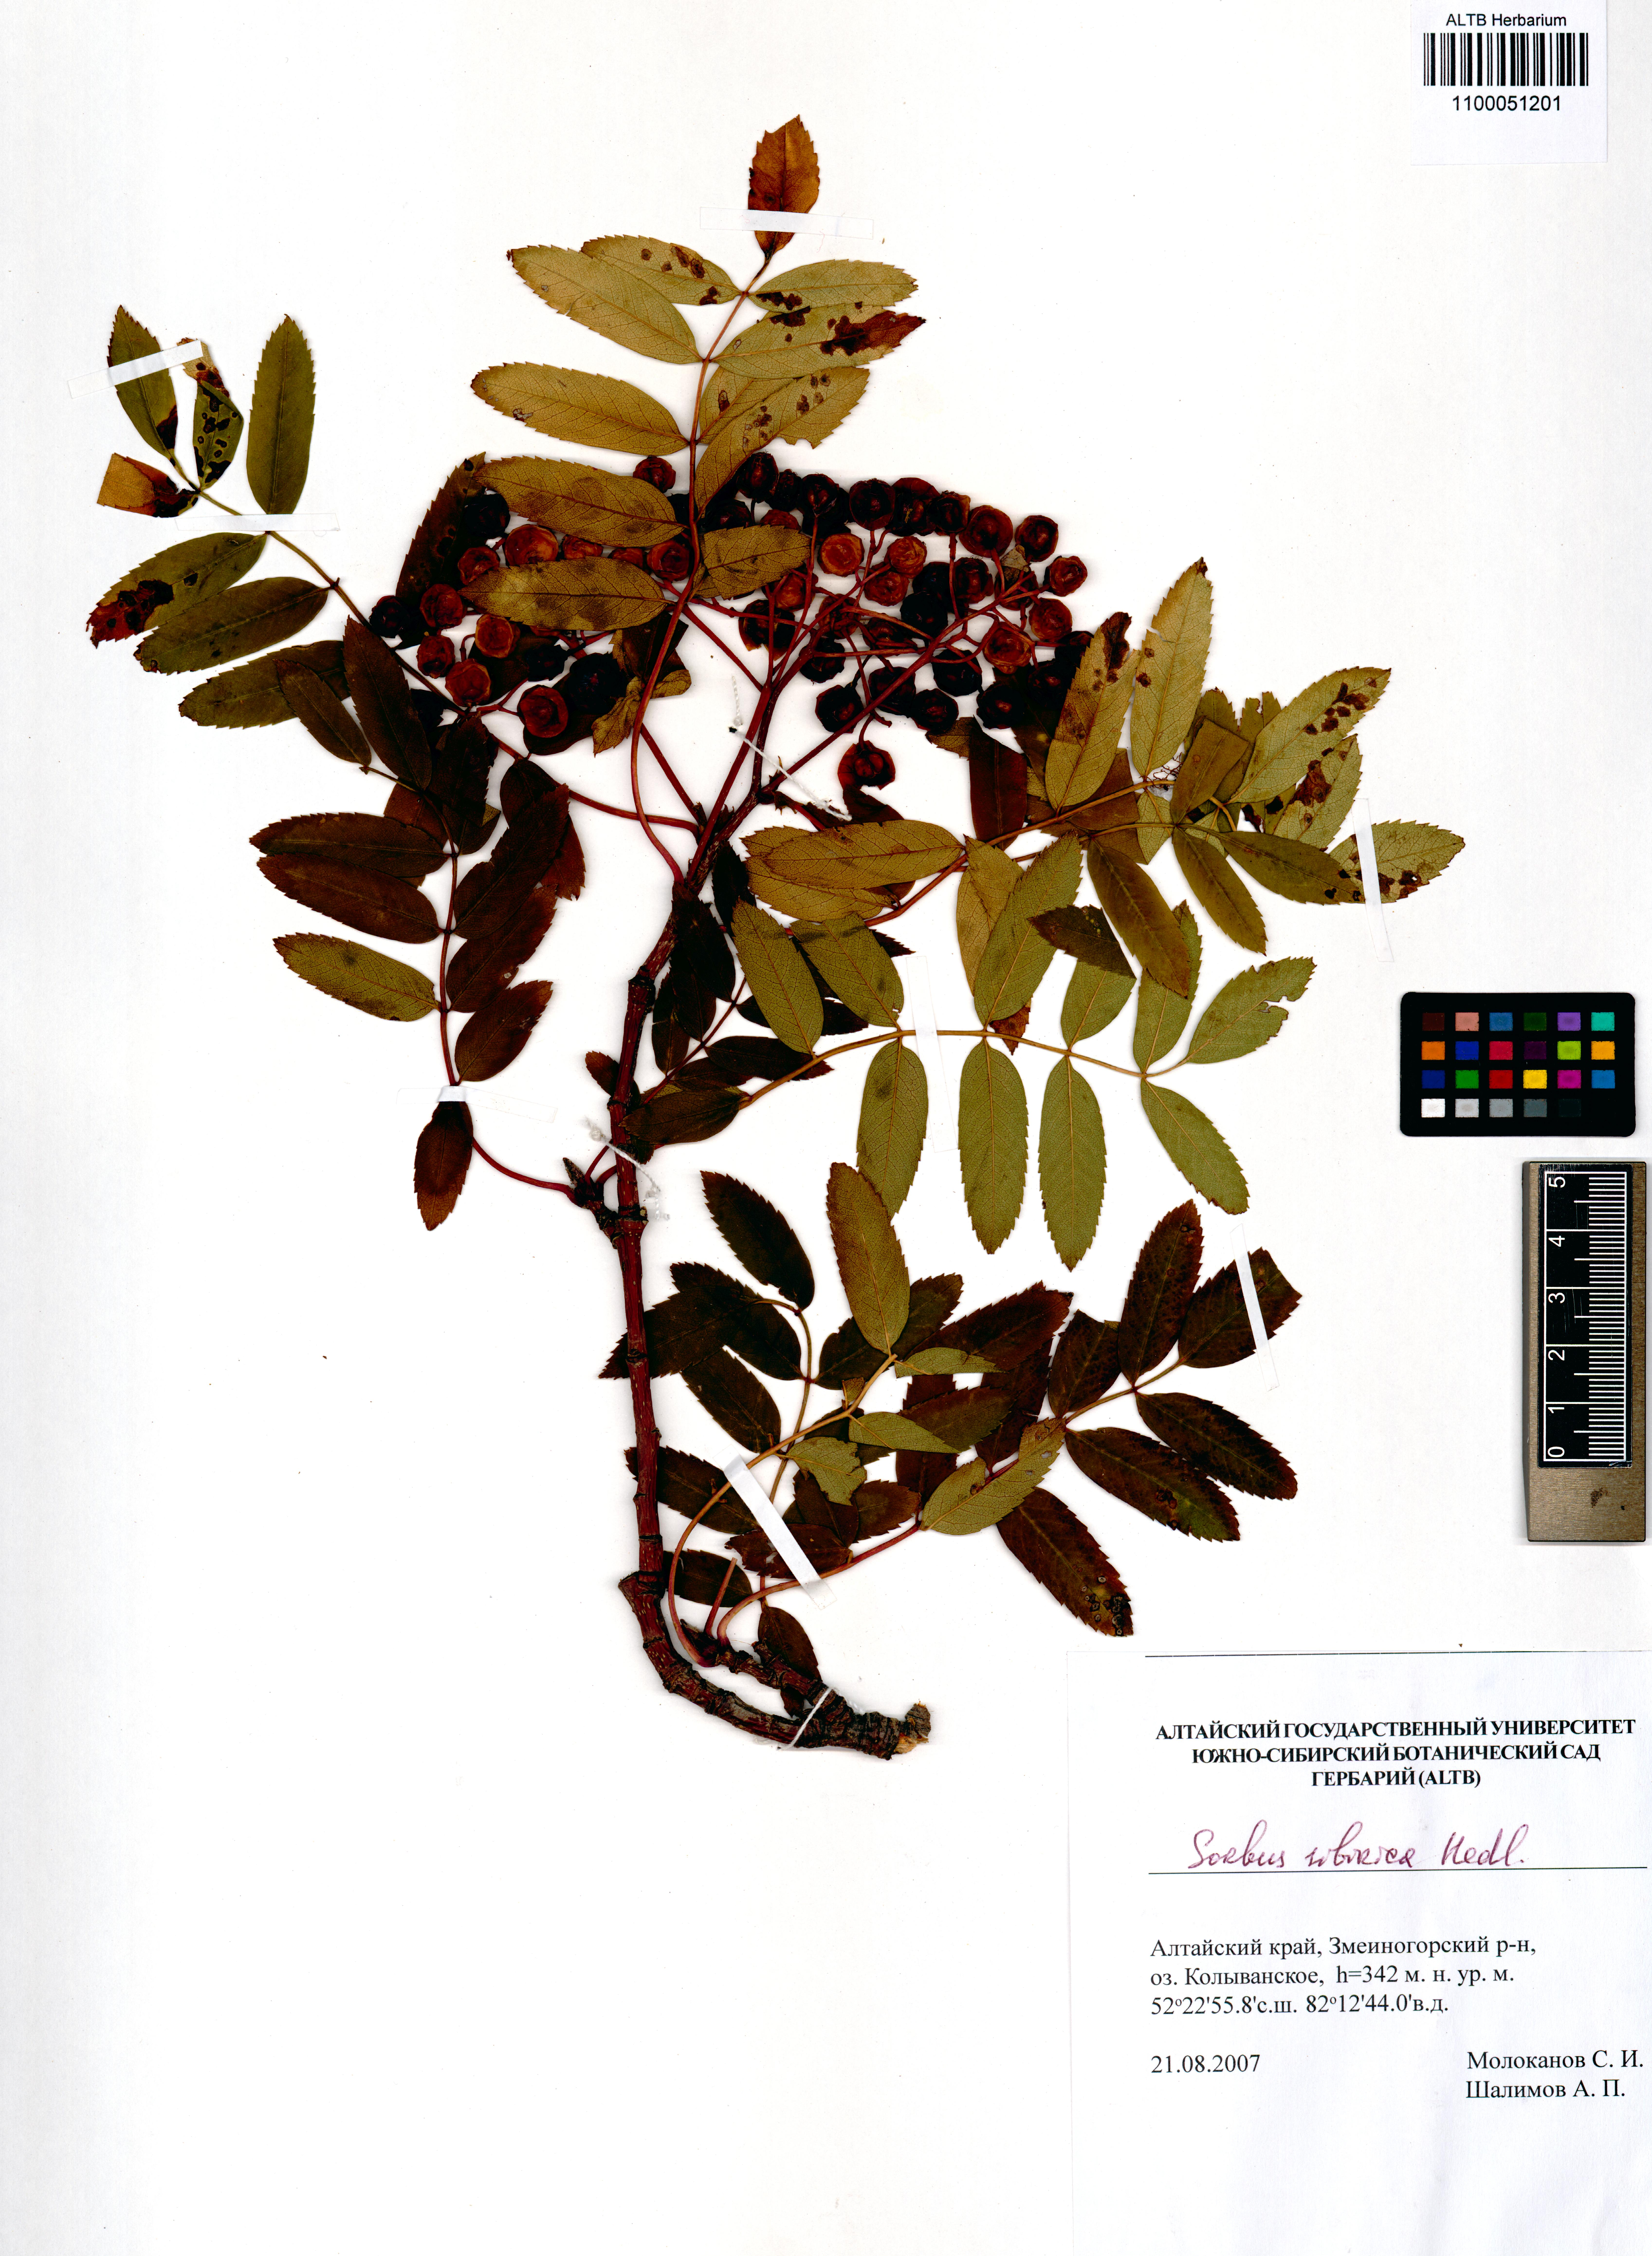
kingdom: Plantae
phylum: Tracheophyta
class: Magnoliopsida
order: Rosales
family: Rosaceae
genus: Sorbus
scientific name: Sorbus aucuparia
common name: Rowan
